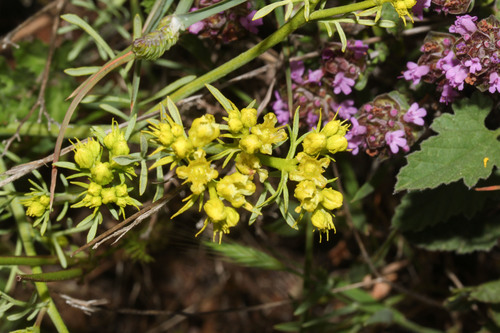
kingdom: Plantae
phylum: Tracheophyta
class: Magnoliopsida
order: Sapindales
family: Rutaceae
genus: Ruta
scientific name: Ruta chalepensis
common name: Fringed rue
